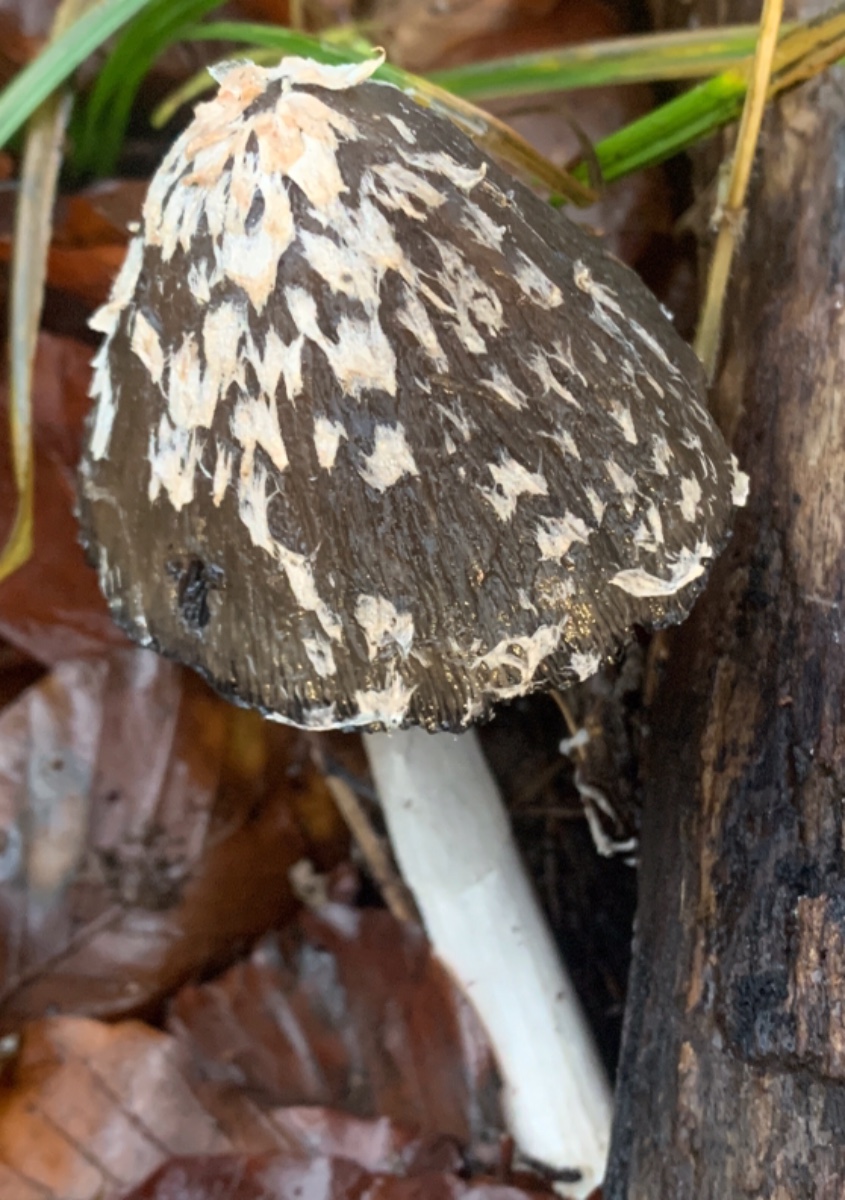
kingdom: Fungi
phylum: Basidiomycota
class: Agaricomycetes
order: Agaricales
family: Psathyrellaceae
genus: Coprinopsis
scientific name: Coprinopsis picacea
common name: skade-blækhat
